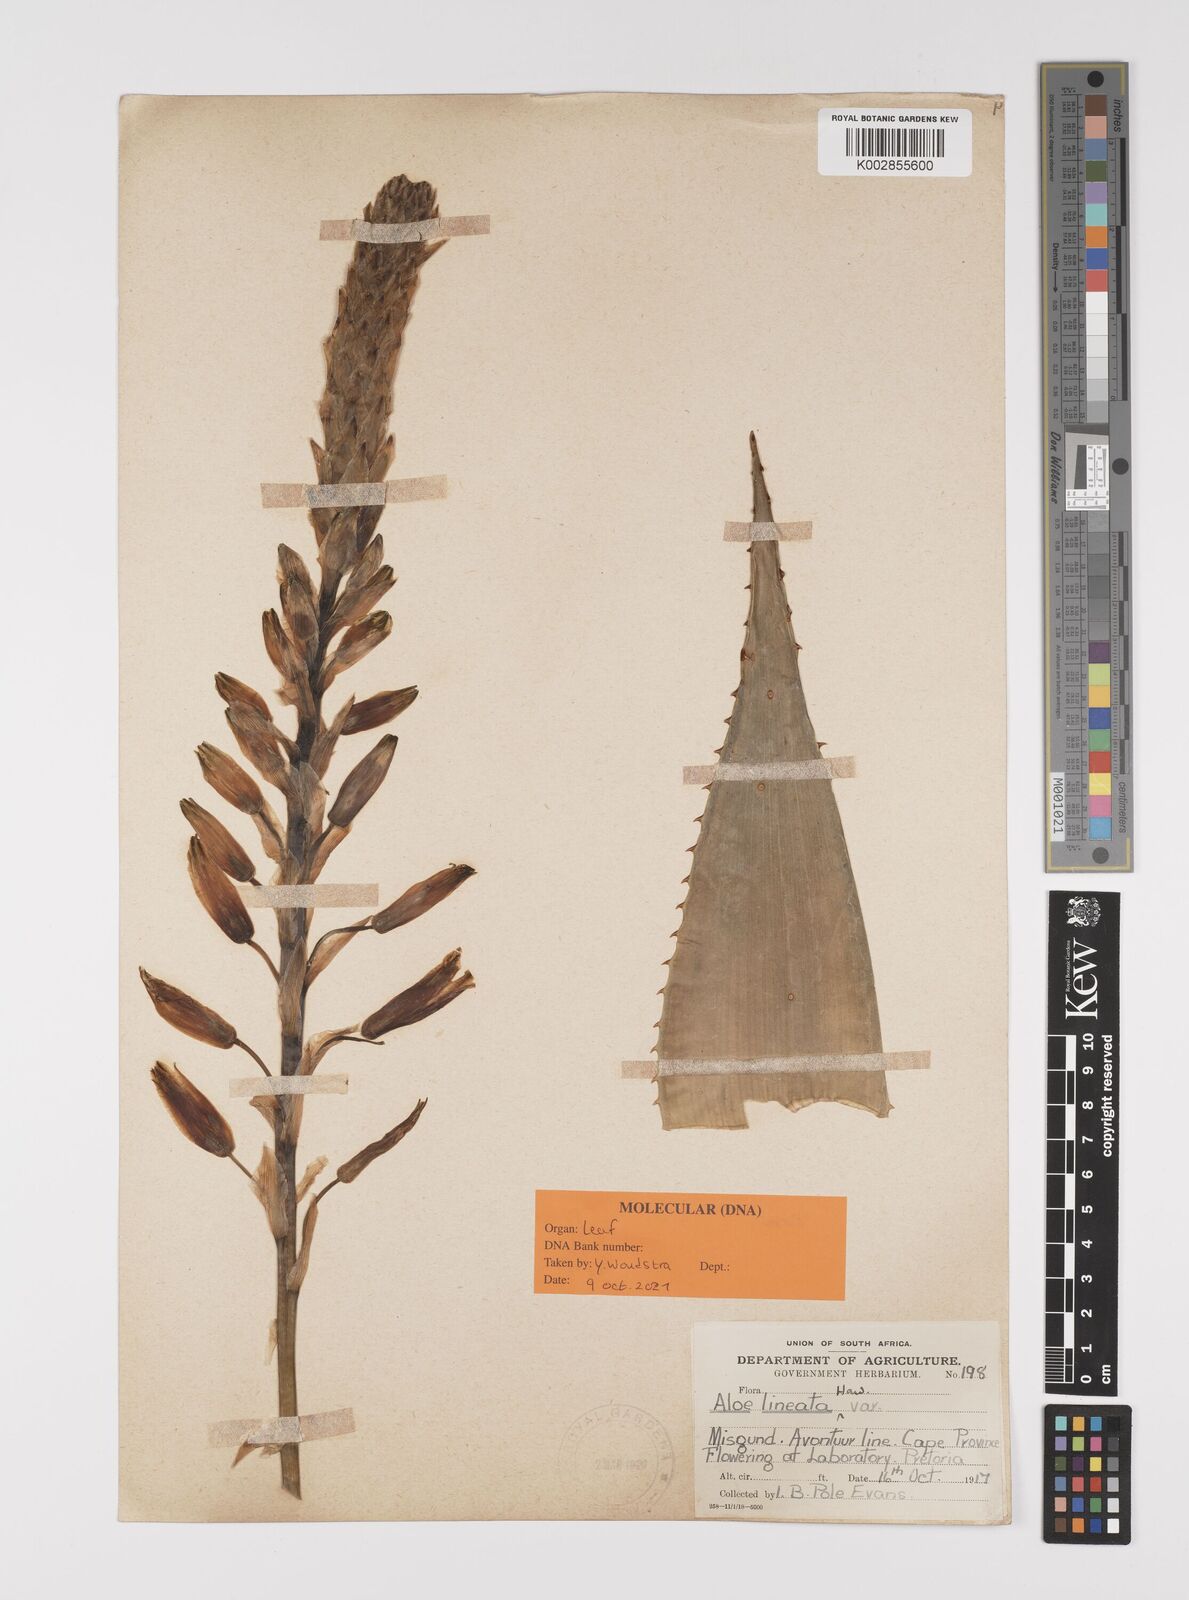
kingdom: Plantae
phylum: Tracheophyta
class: Liliopsida
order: Asparagales
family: Asphodelaceae
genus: Aloe
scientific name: Aloe lineata
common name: Lined red-spined aloe
